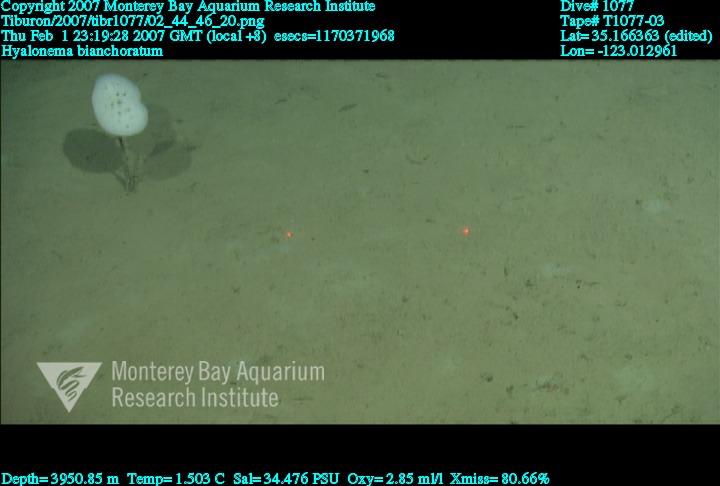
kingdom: Animalia
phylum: Porifera
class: Hexactinellida
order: Amphidiscosida
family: Hyalonematidae
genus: Hyalonema
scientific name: Hyalonema bianchoratum
